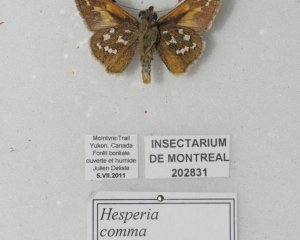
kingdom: Animalia
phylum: Arthropoda
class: Insecta
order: Lepidoptera
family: Hesperiidae
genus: Hesperia
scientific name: Hesperia comma
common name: Common Branded Skipper
